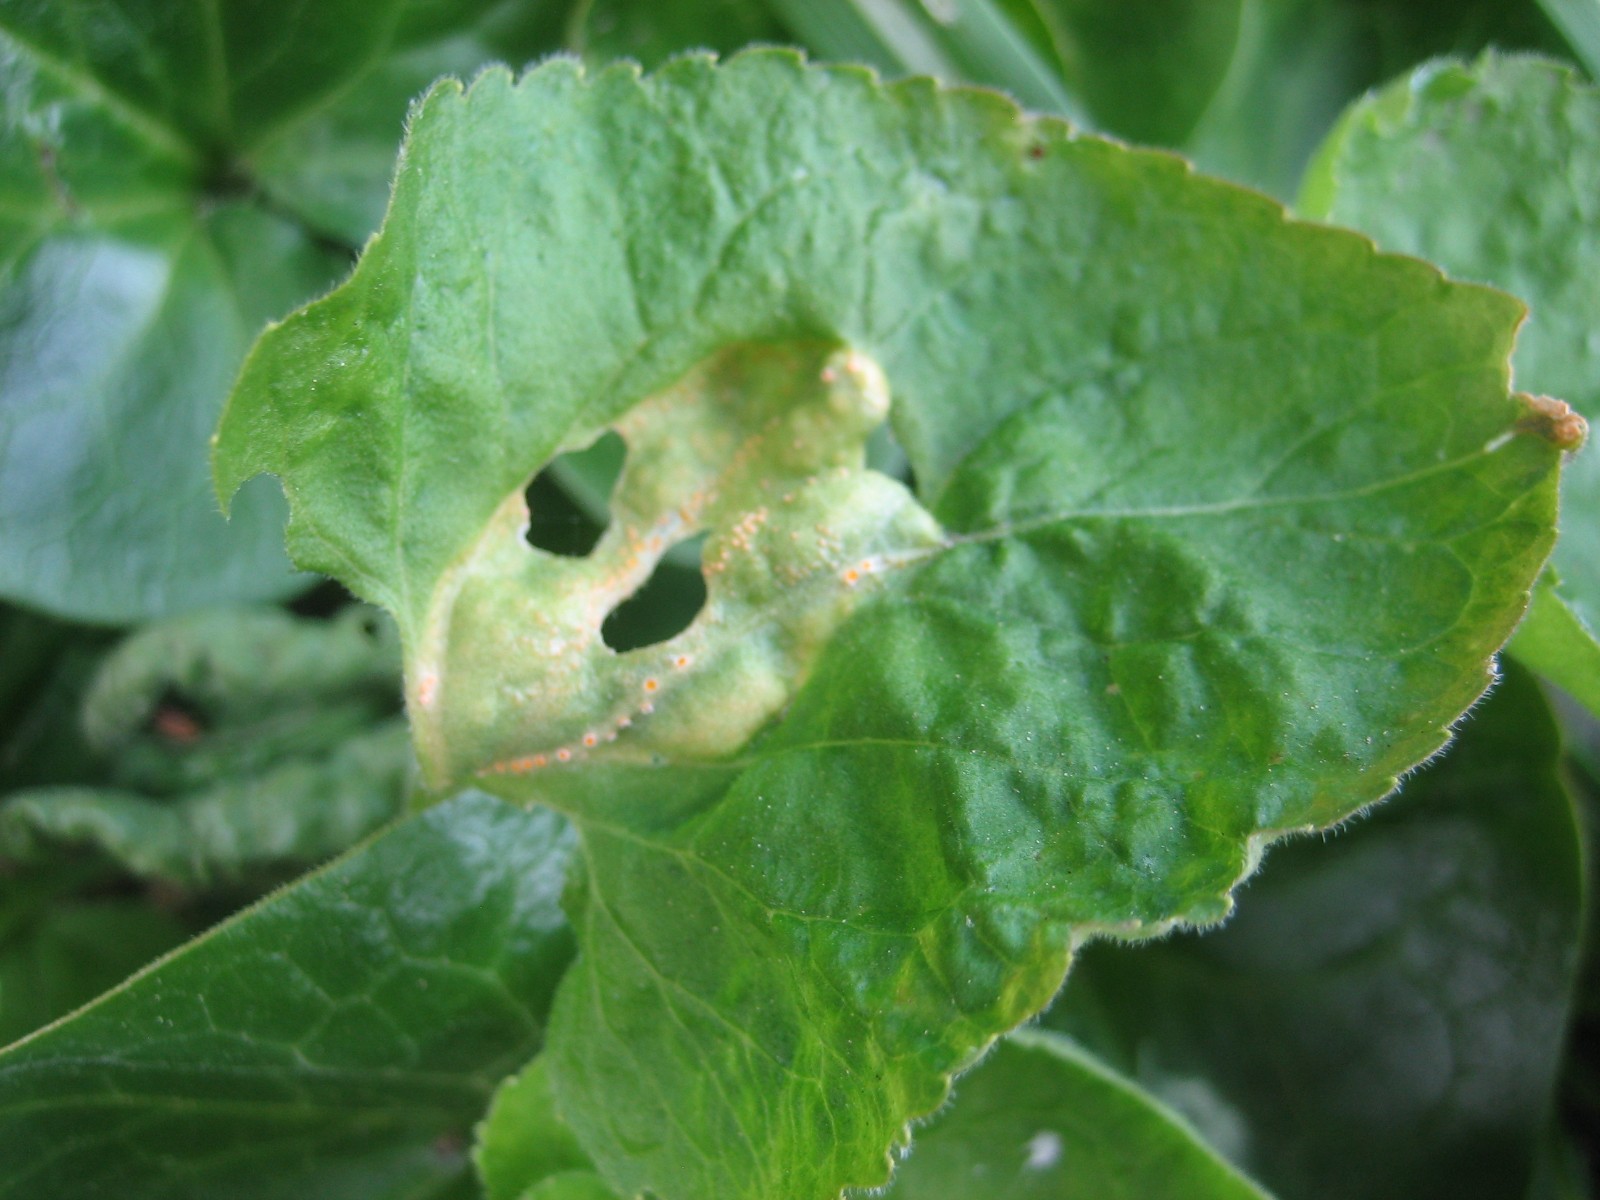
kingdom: Fungi
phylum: Basidiomycota
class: Pucciniomycetes
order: Pucciniales
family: Pucciniaceae
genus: Puccinia
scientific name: Puccinia violae
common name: viol-tvecellerust
